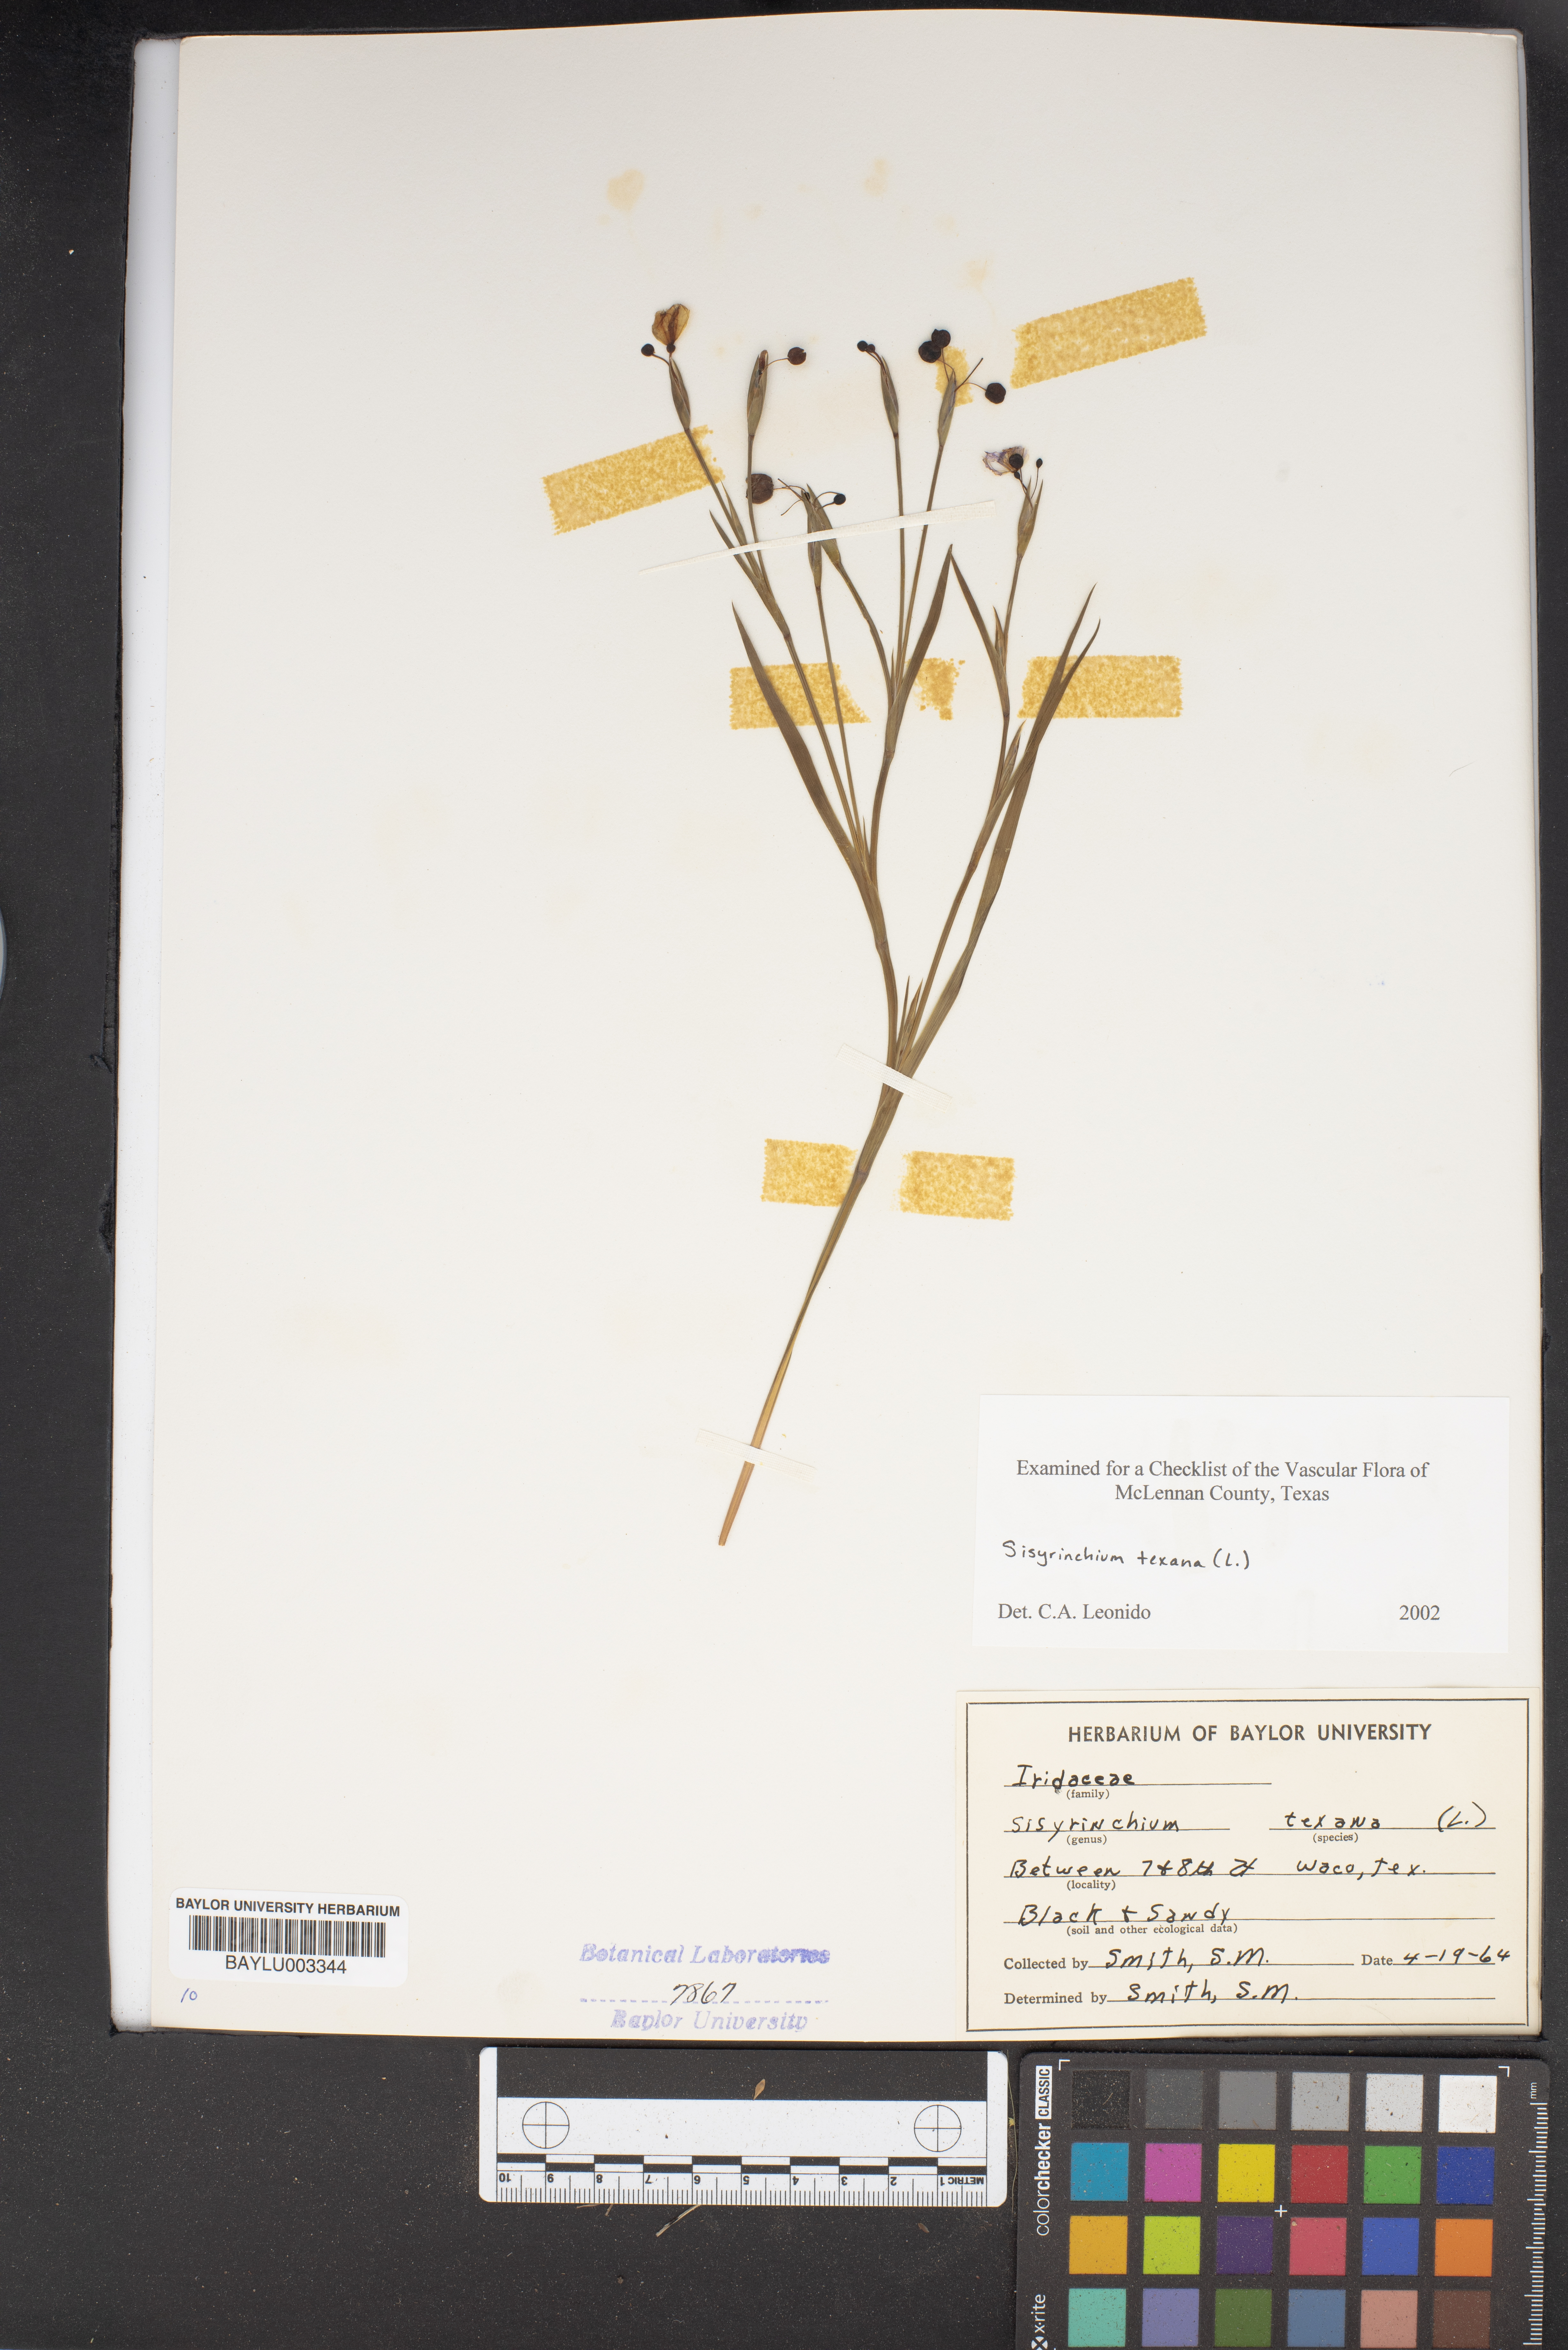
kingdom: Plantae
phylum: Tracheophyta
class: Liliopsida
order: Asparagales
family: Iridaceae
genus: Sisyrinchium
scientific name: Sisyrinchium pruinosum
